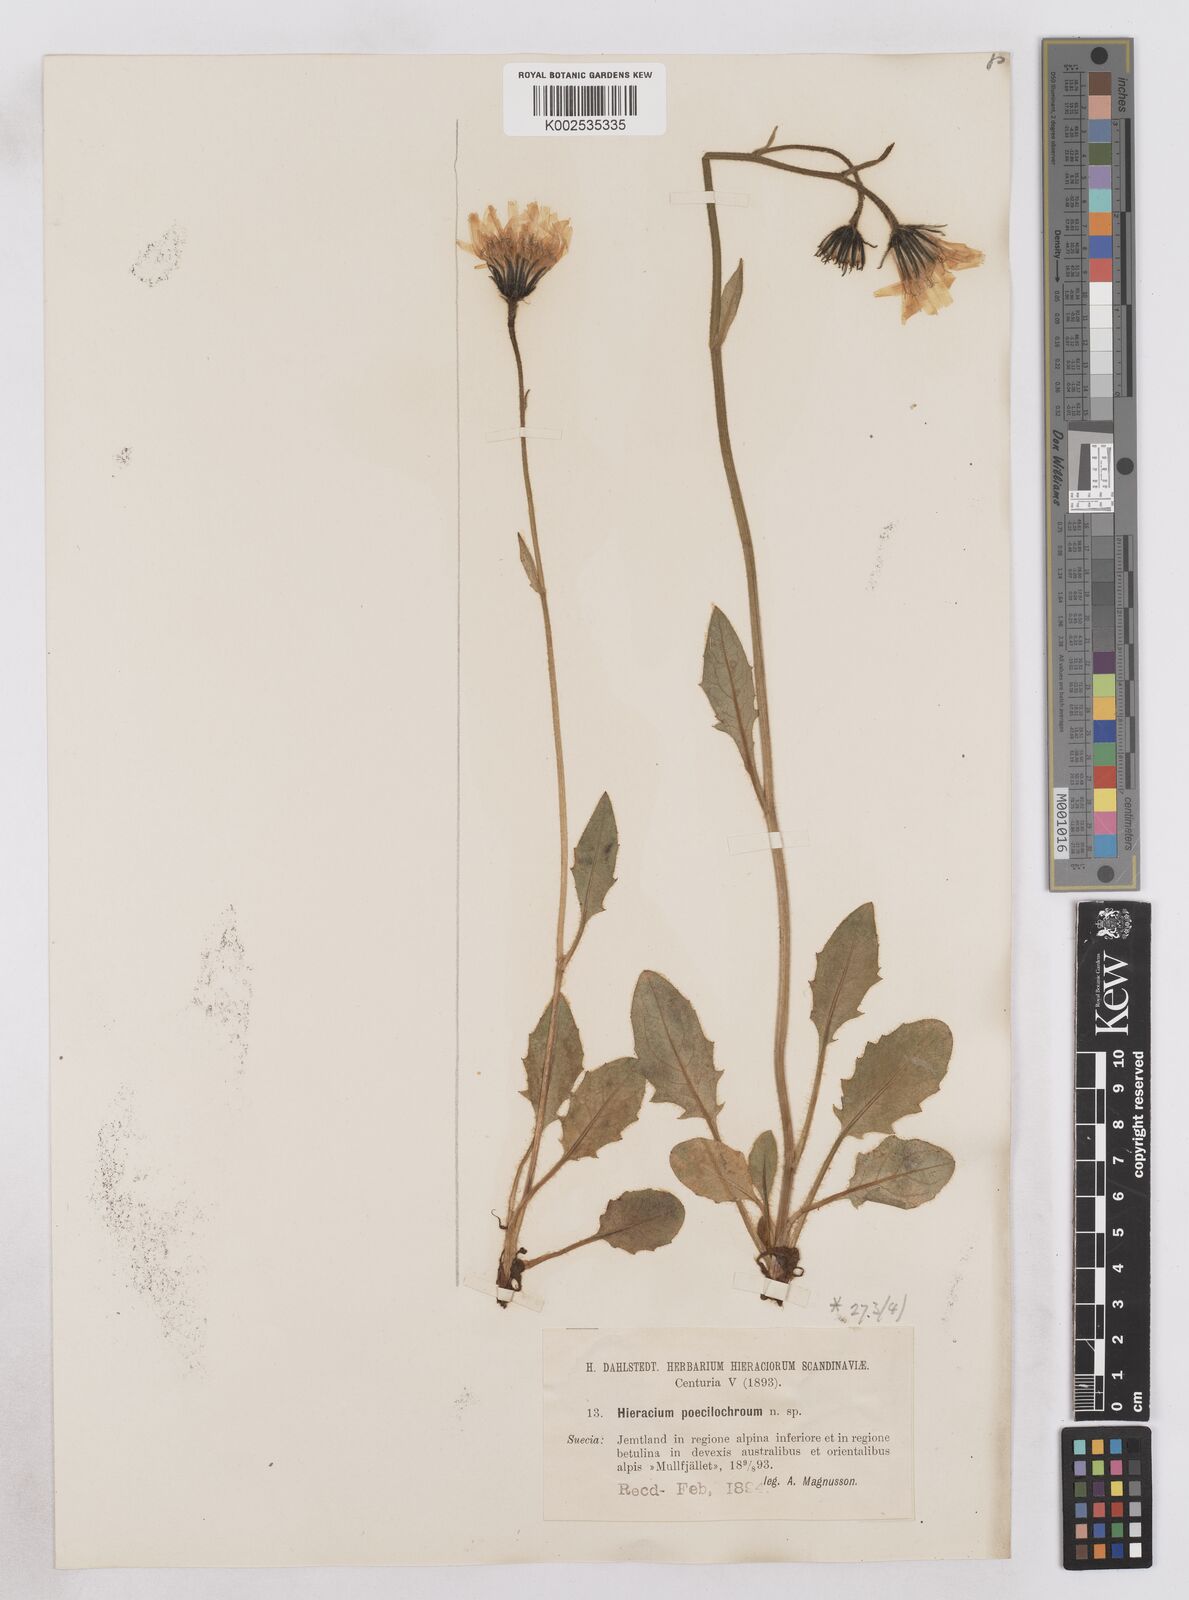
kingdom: Plantae
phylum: Tracheophyta
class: Magnoliopsida
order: Asterales
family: Asteraceae
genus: Hieracium
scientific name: Hieracium conspurcans
